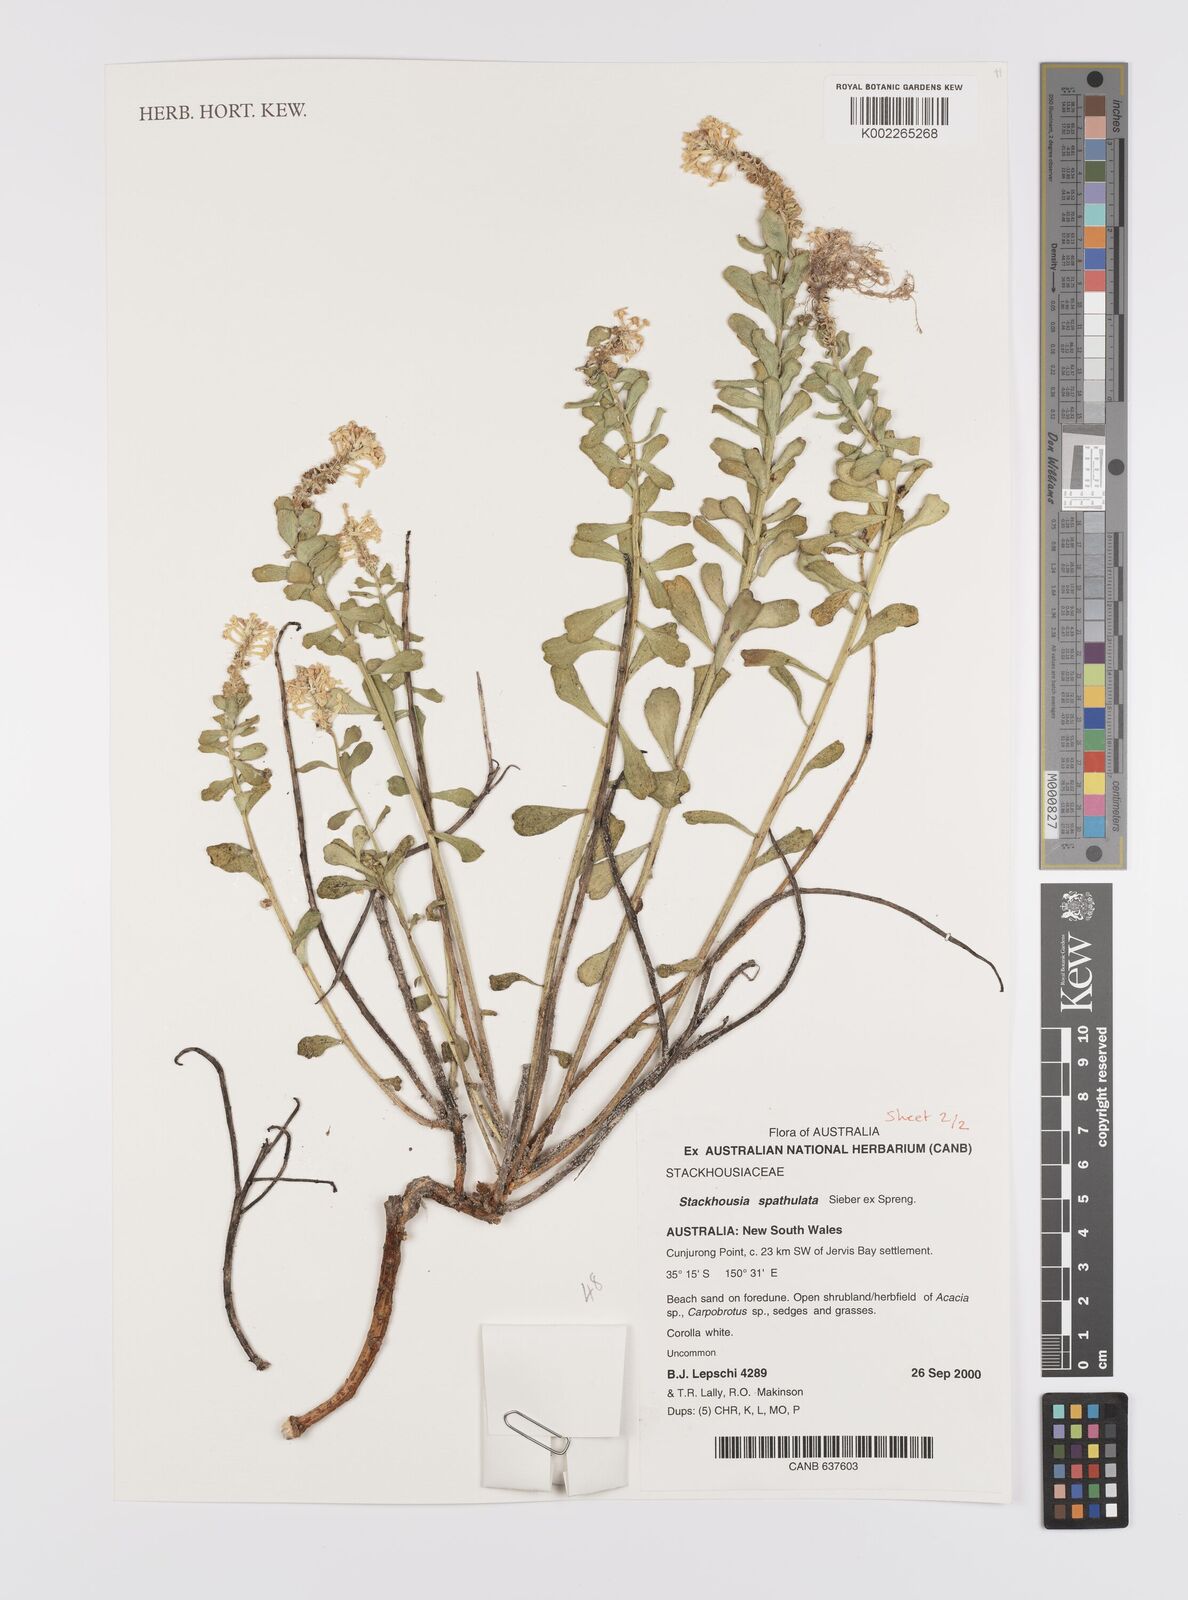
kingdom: Plantae
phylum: Tracheophyta
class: Magnoliopsida
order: Celastrales
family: Celastraceae
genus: Stackhousia
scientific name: Stackhousia spathulata
